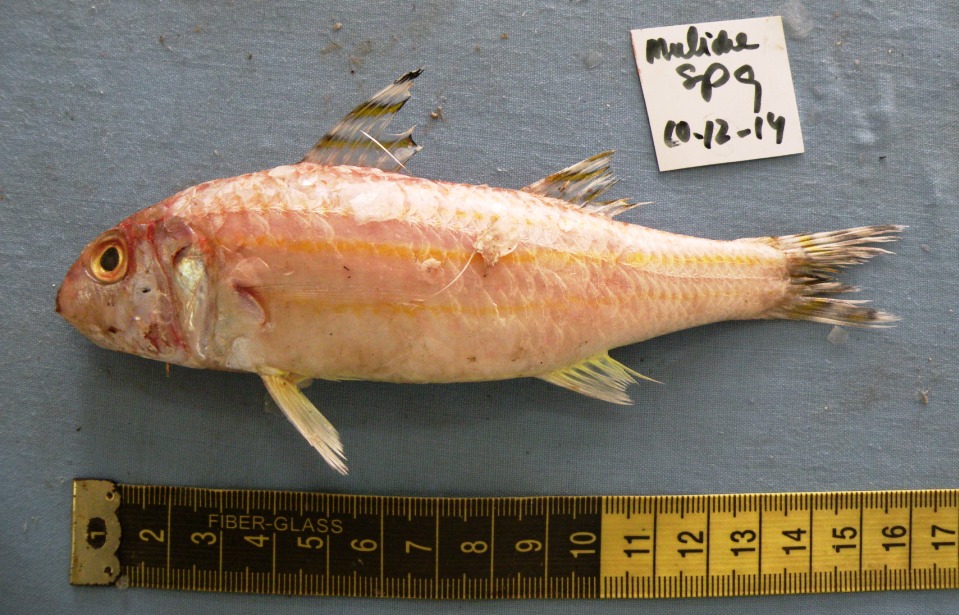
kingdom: Animalia
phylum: Chordata
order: Perciformes
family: Mullidae
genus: Upeneus
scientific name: Upeneus supravittatus
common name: Long-fin goatfish
